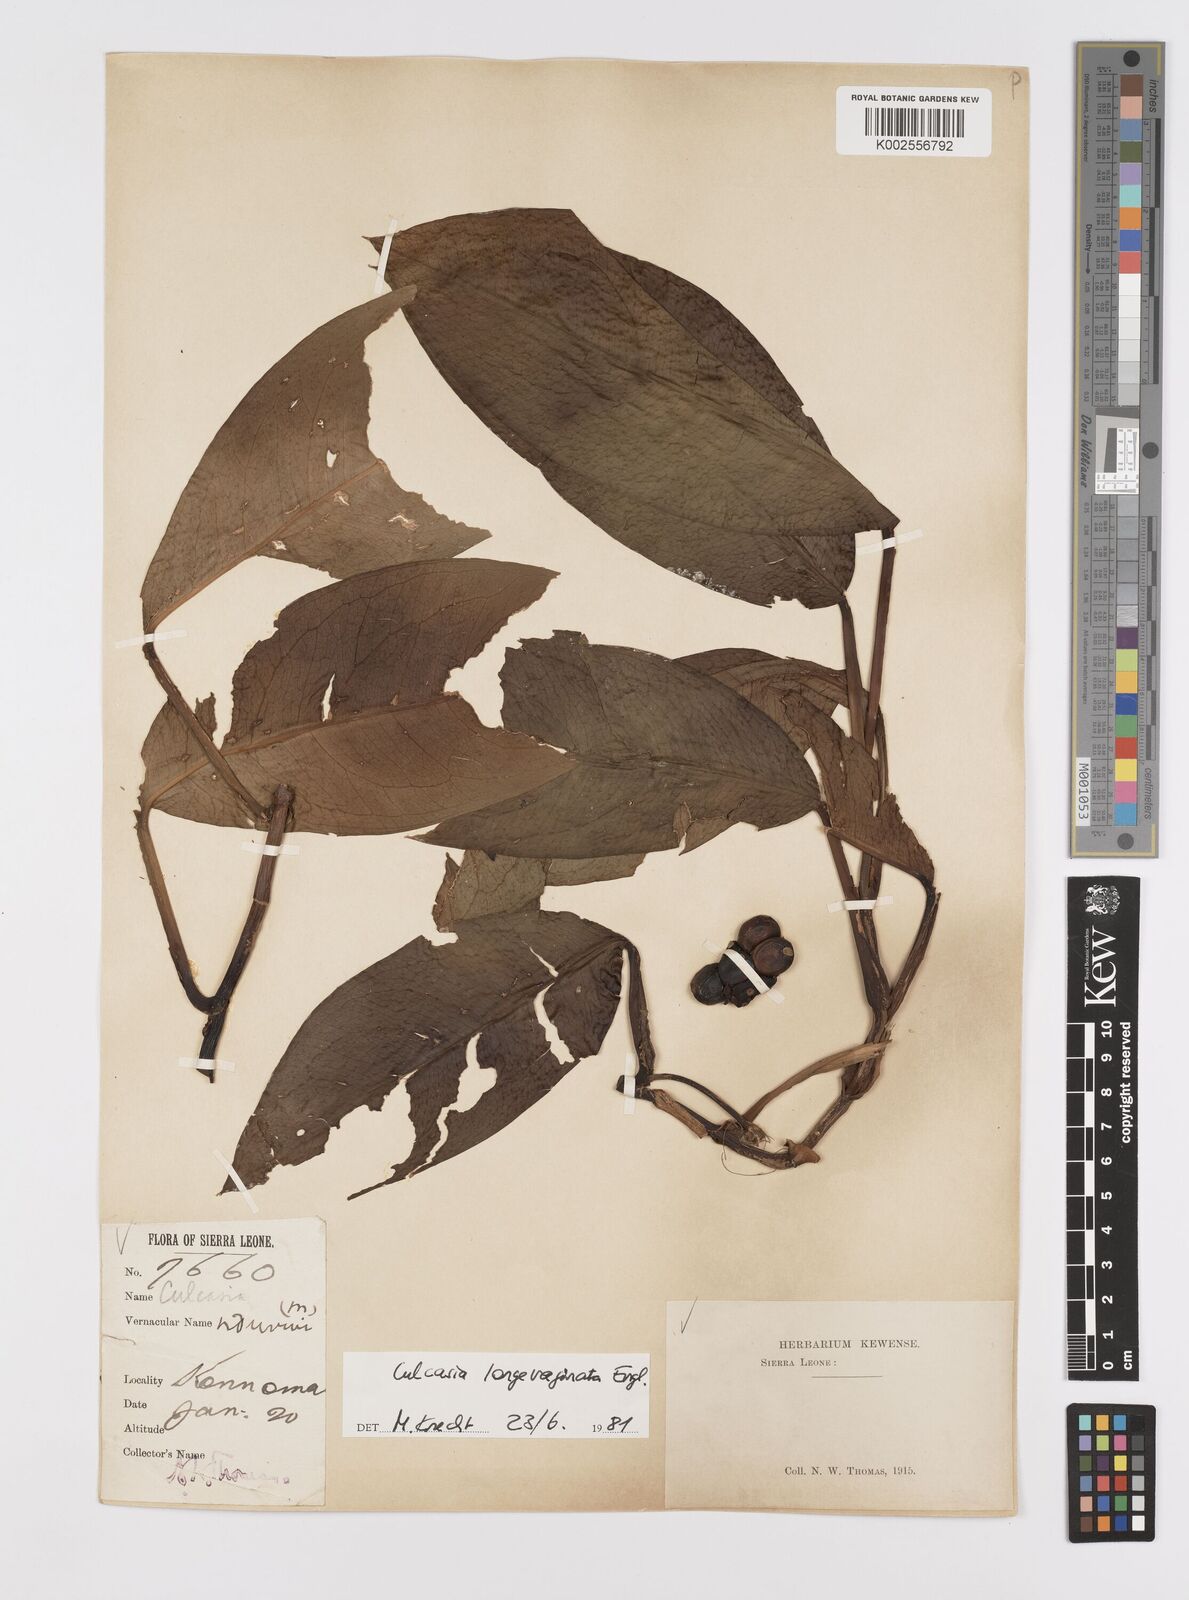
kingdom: Plantae
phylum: Tracheophyta
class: Liliopsida
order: Alismatales
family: Araceae
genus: Culcasia
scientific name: Culcasia striolata
